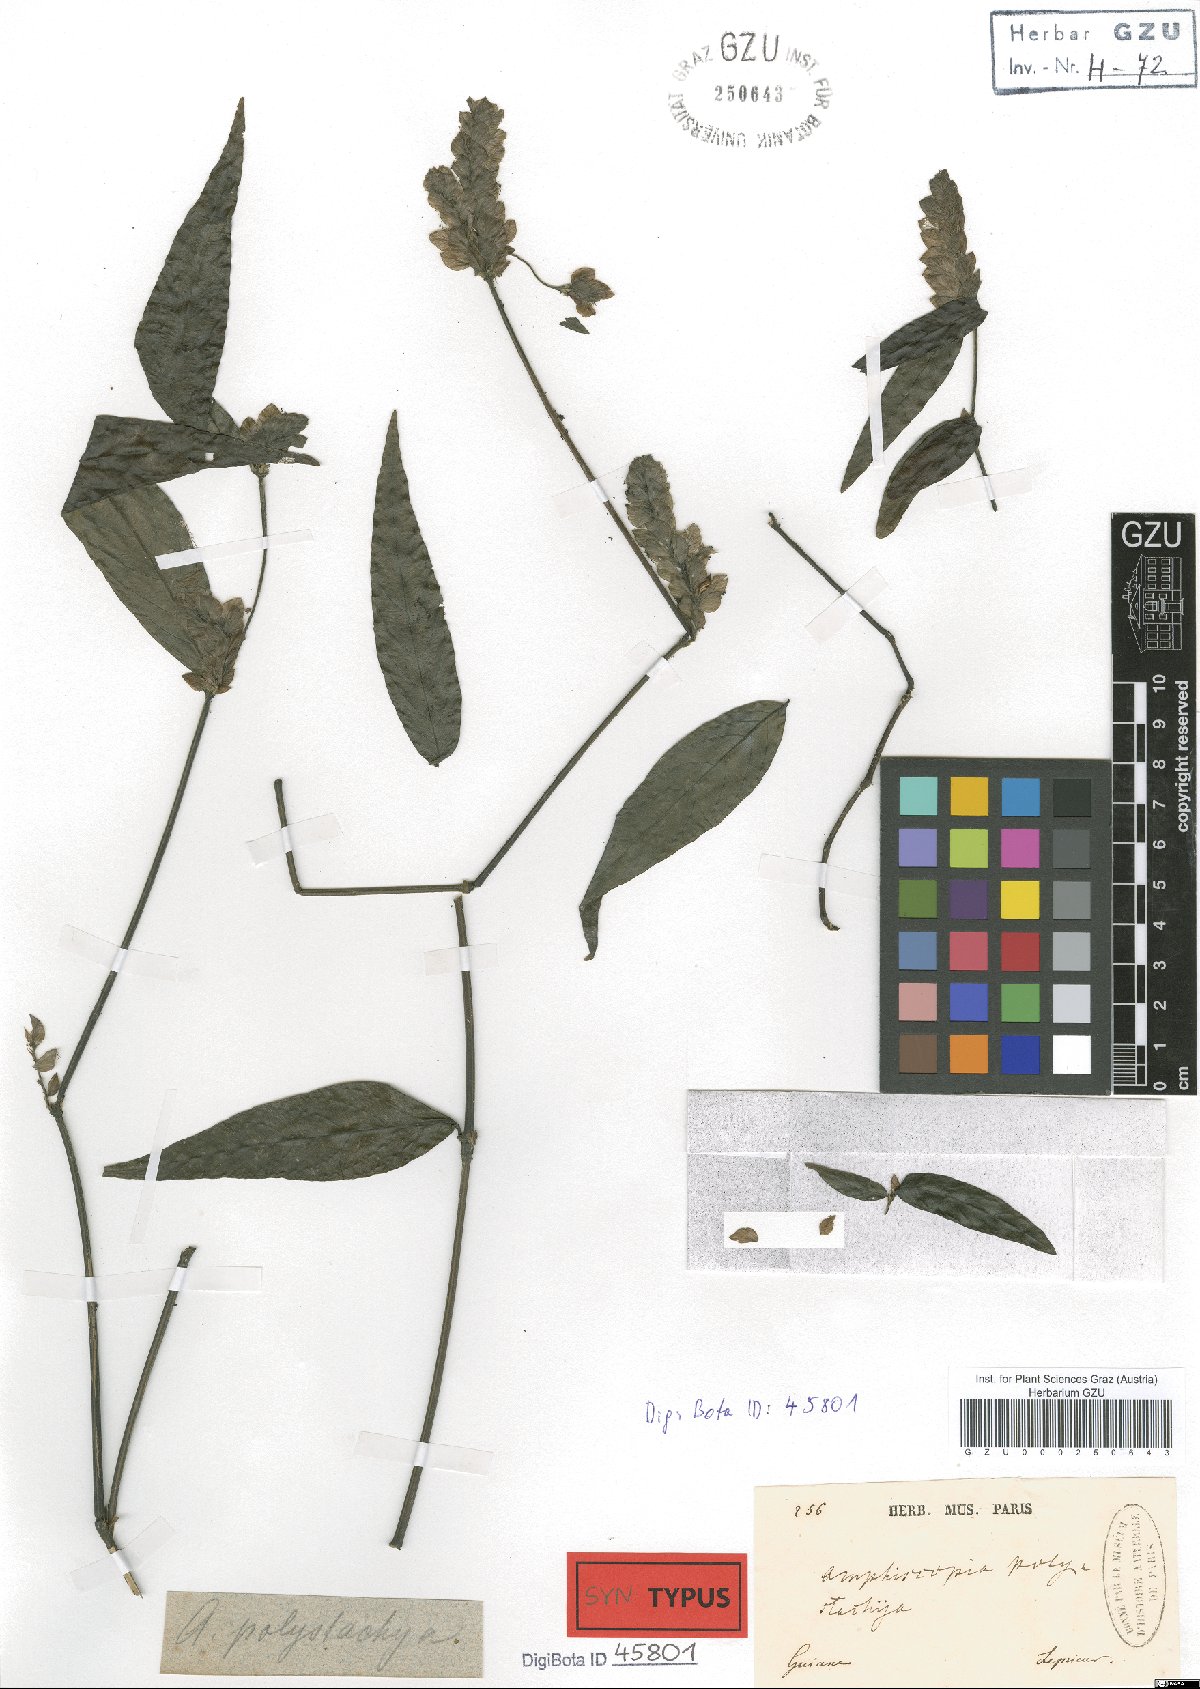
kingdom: Plantae
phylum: Tracheophyta
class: Magnoliopsida
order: Lamiales
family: Acanthaceae
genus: Justicia
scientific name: Justicia polystachya
